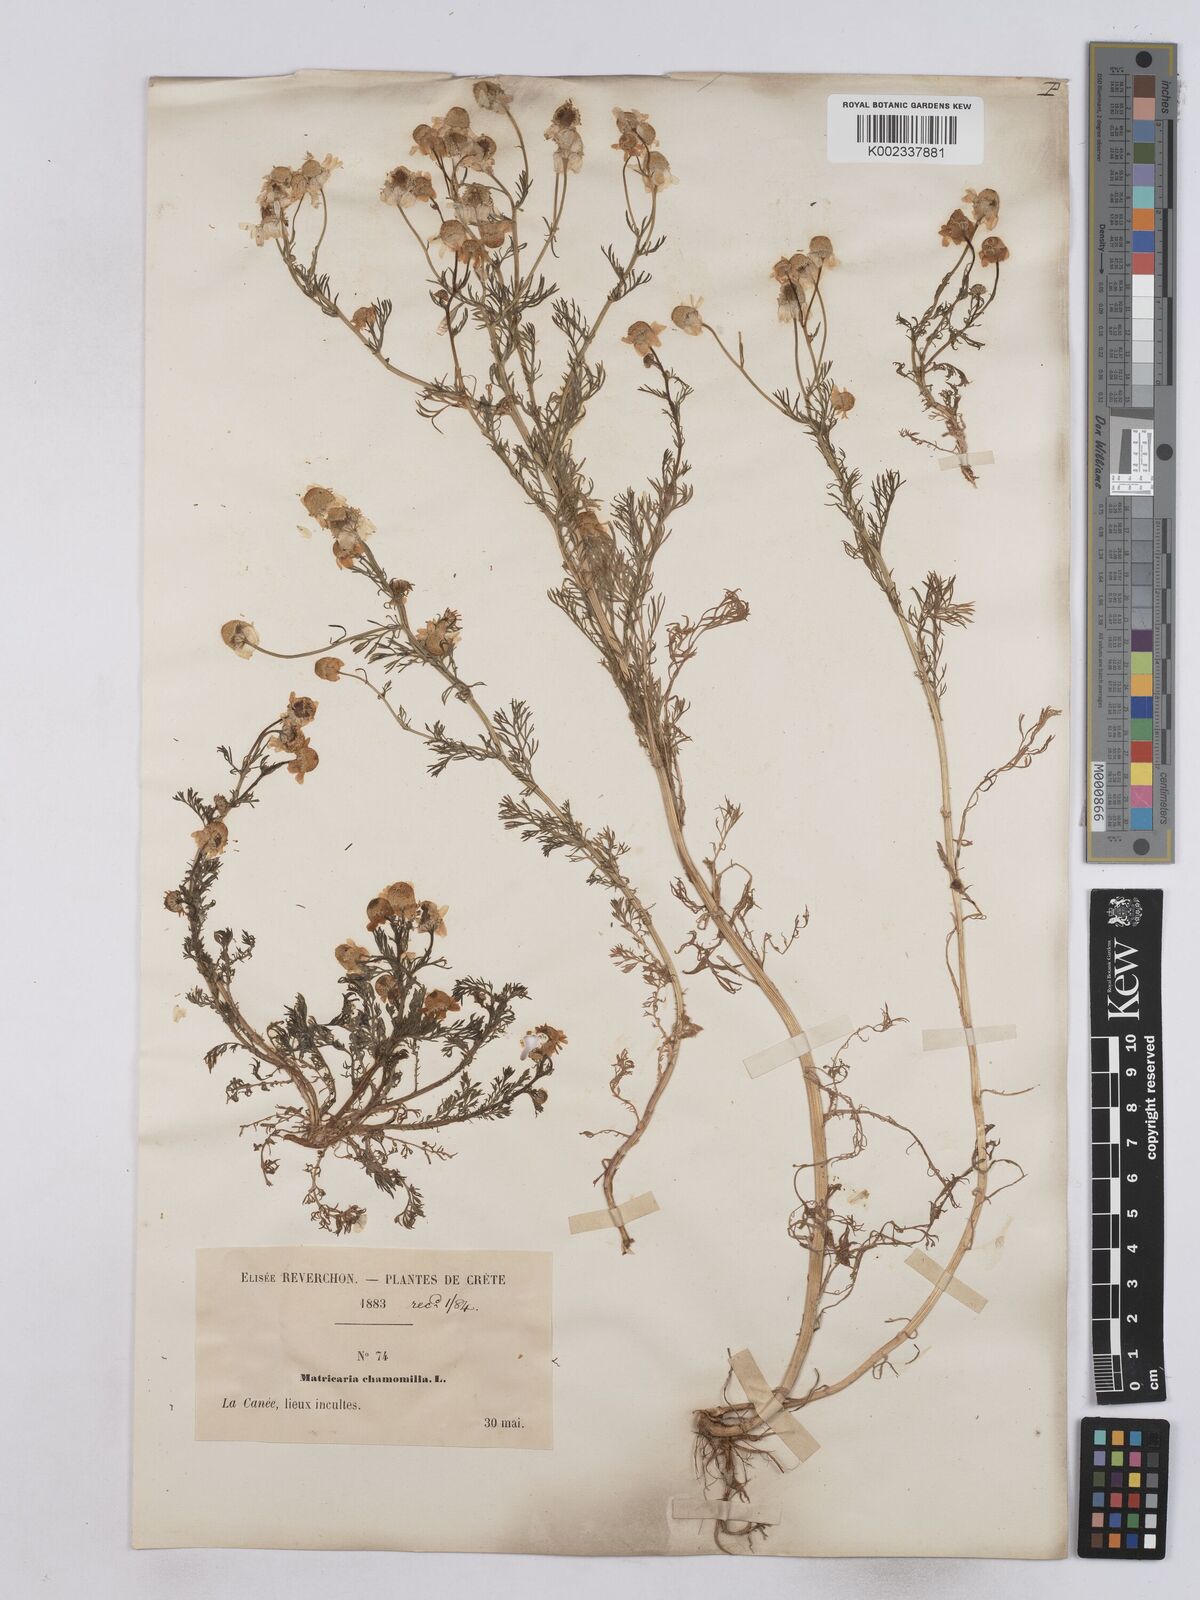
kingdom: Plantae
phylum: Tracheophyta
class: Magnoliopsida
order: Asterales
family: Asteraceae
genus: Matricaria
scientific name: Matricaria chamomilla
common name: Scented mayweed
